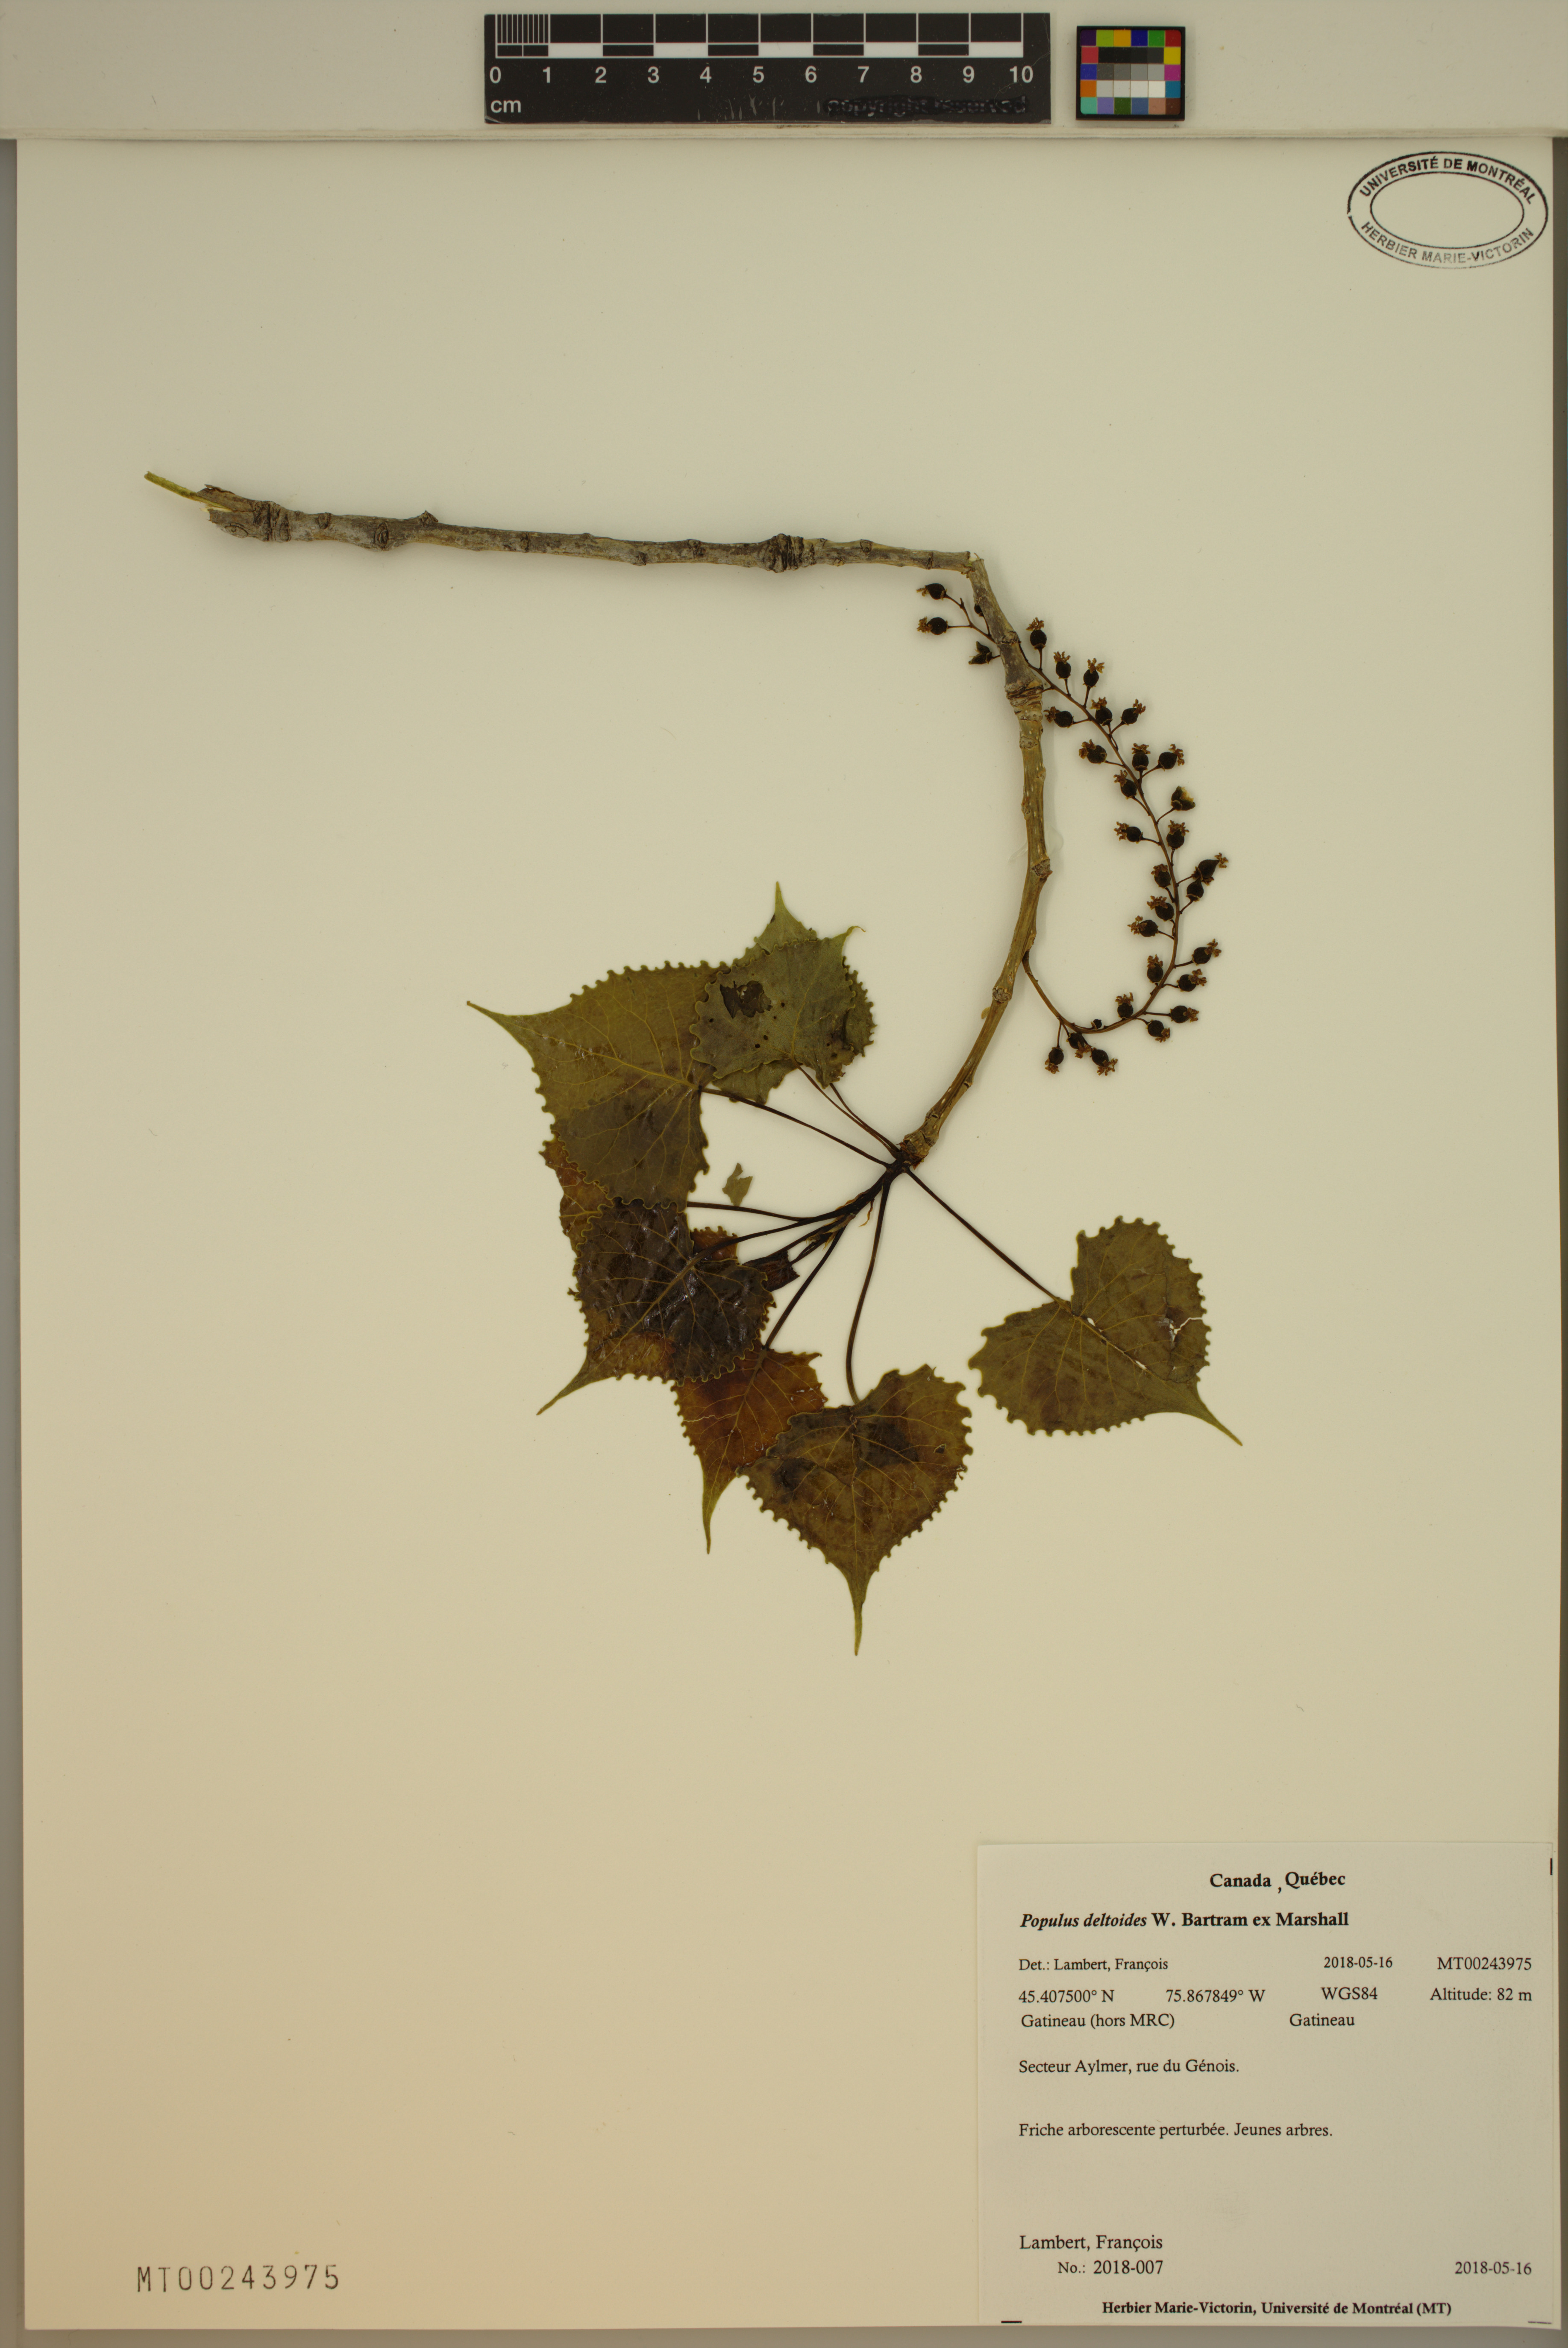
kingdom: Plantae
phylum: Tracheophyta
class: Magnoliopsida
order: Malpighiales
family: Salicaceae
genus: Populus
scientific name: Populus deltoides
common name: Eastern cottonwood
